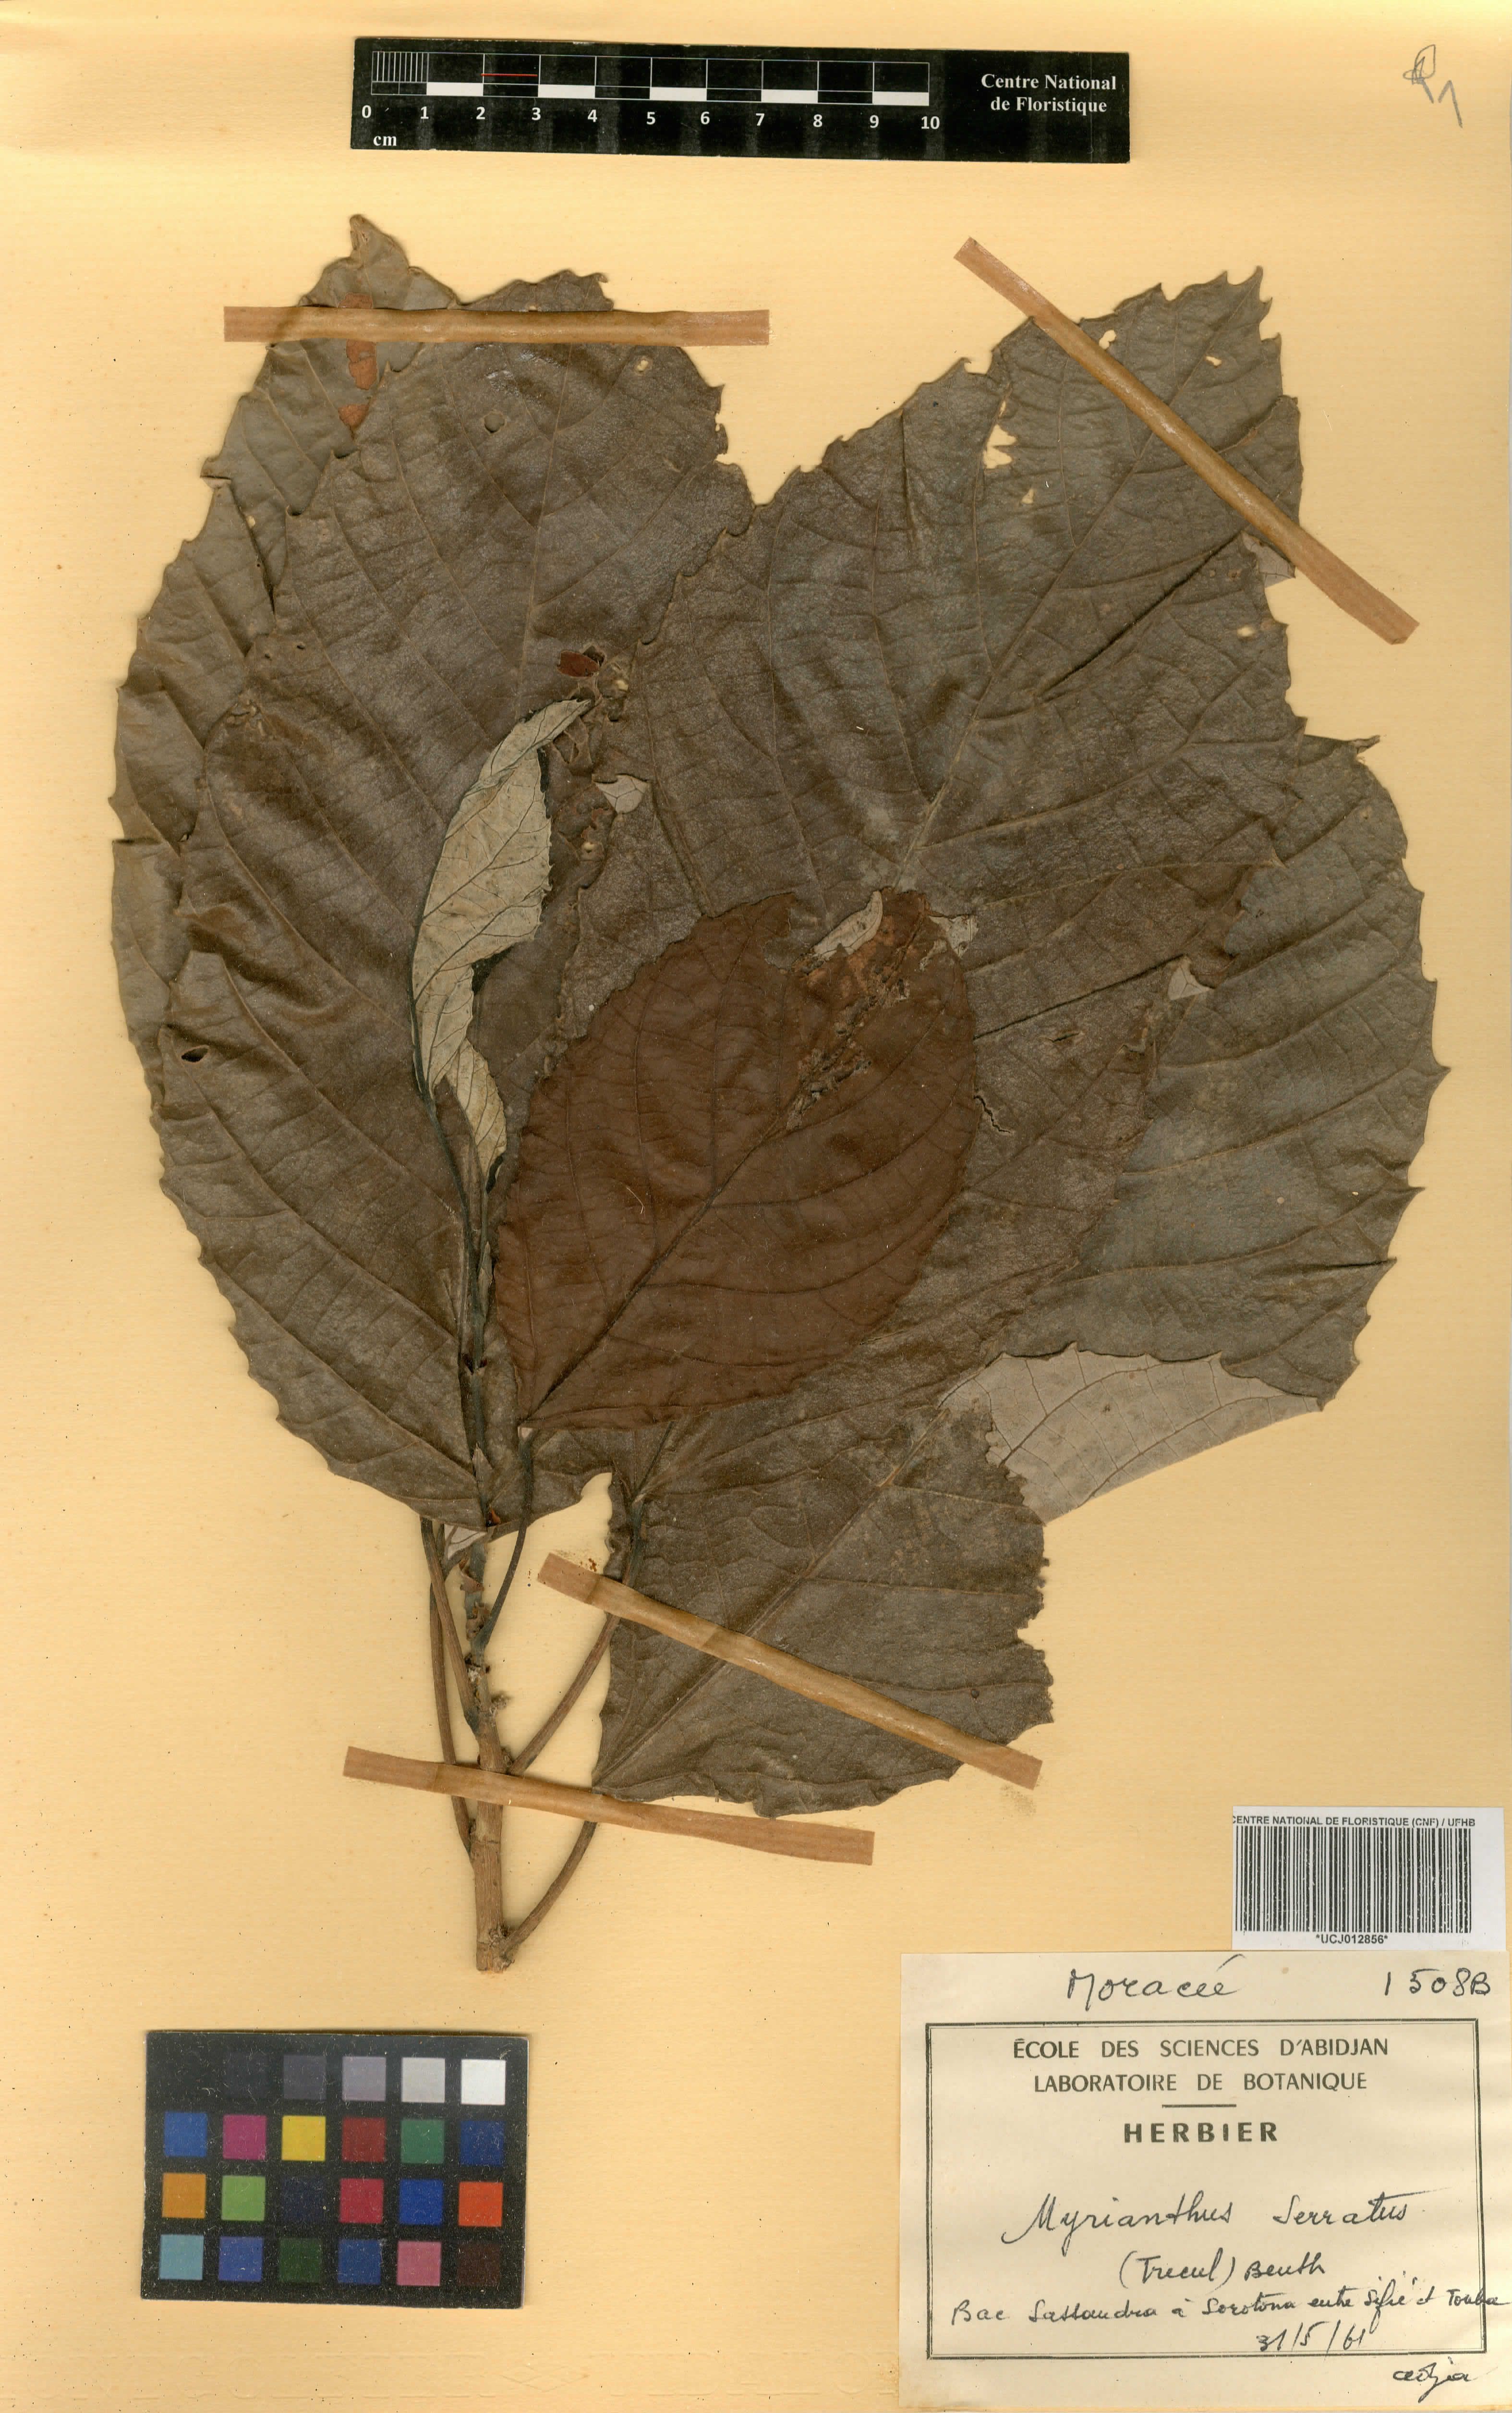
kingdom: Plantae
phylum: Tracheophyta
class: Magnoliopsida
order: Rosales
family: Urticaceae
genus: Myrianthus
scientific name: Myrianthus serratus
